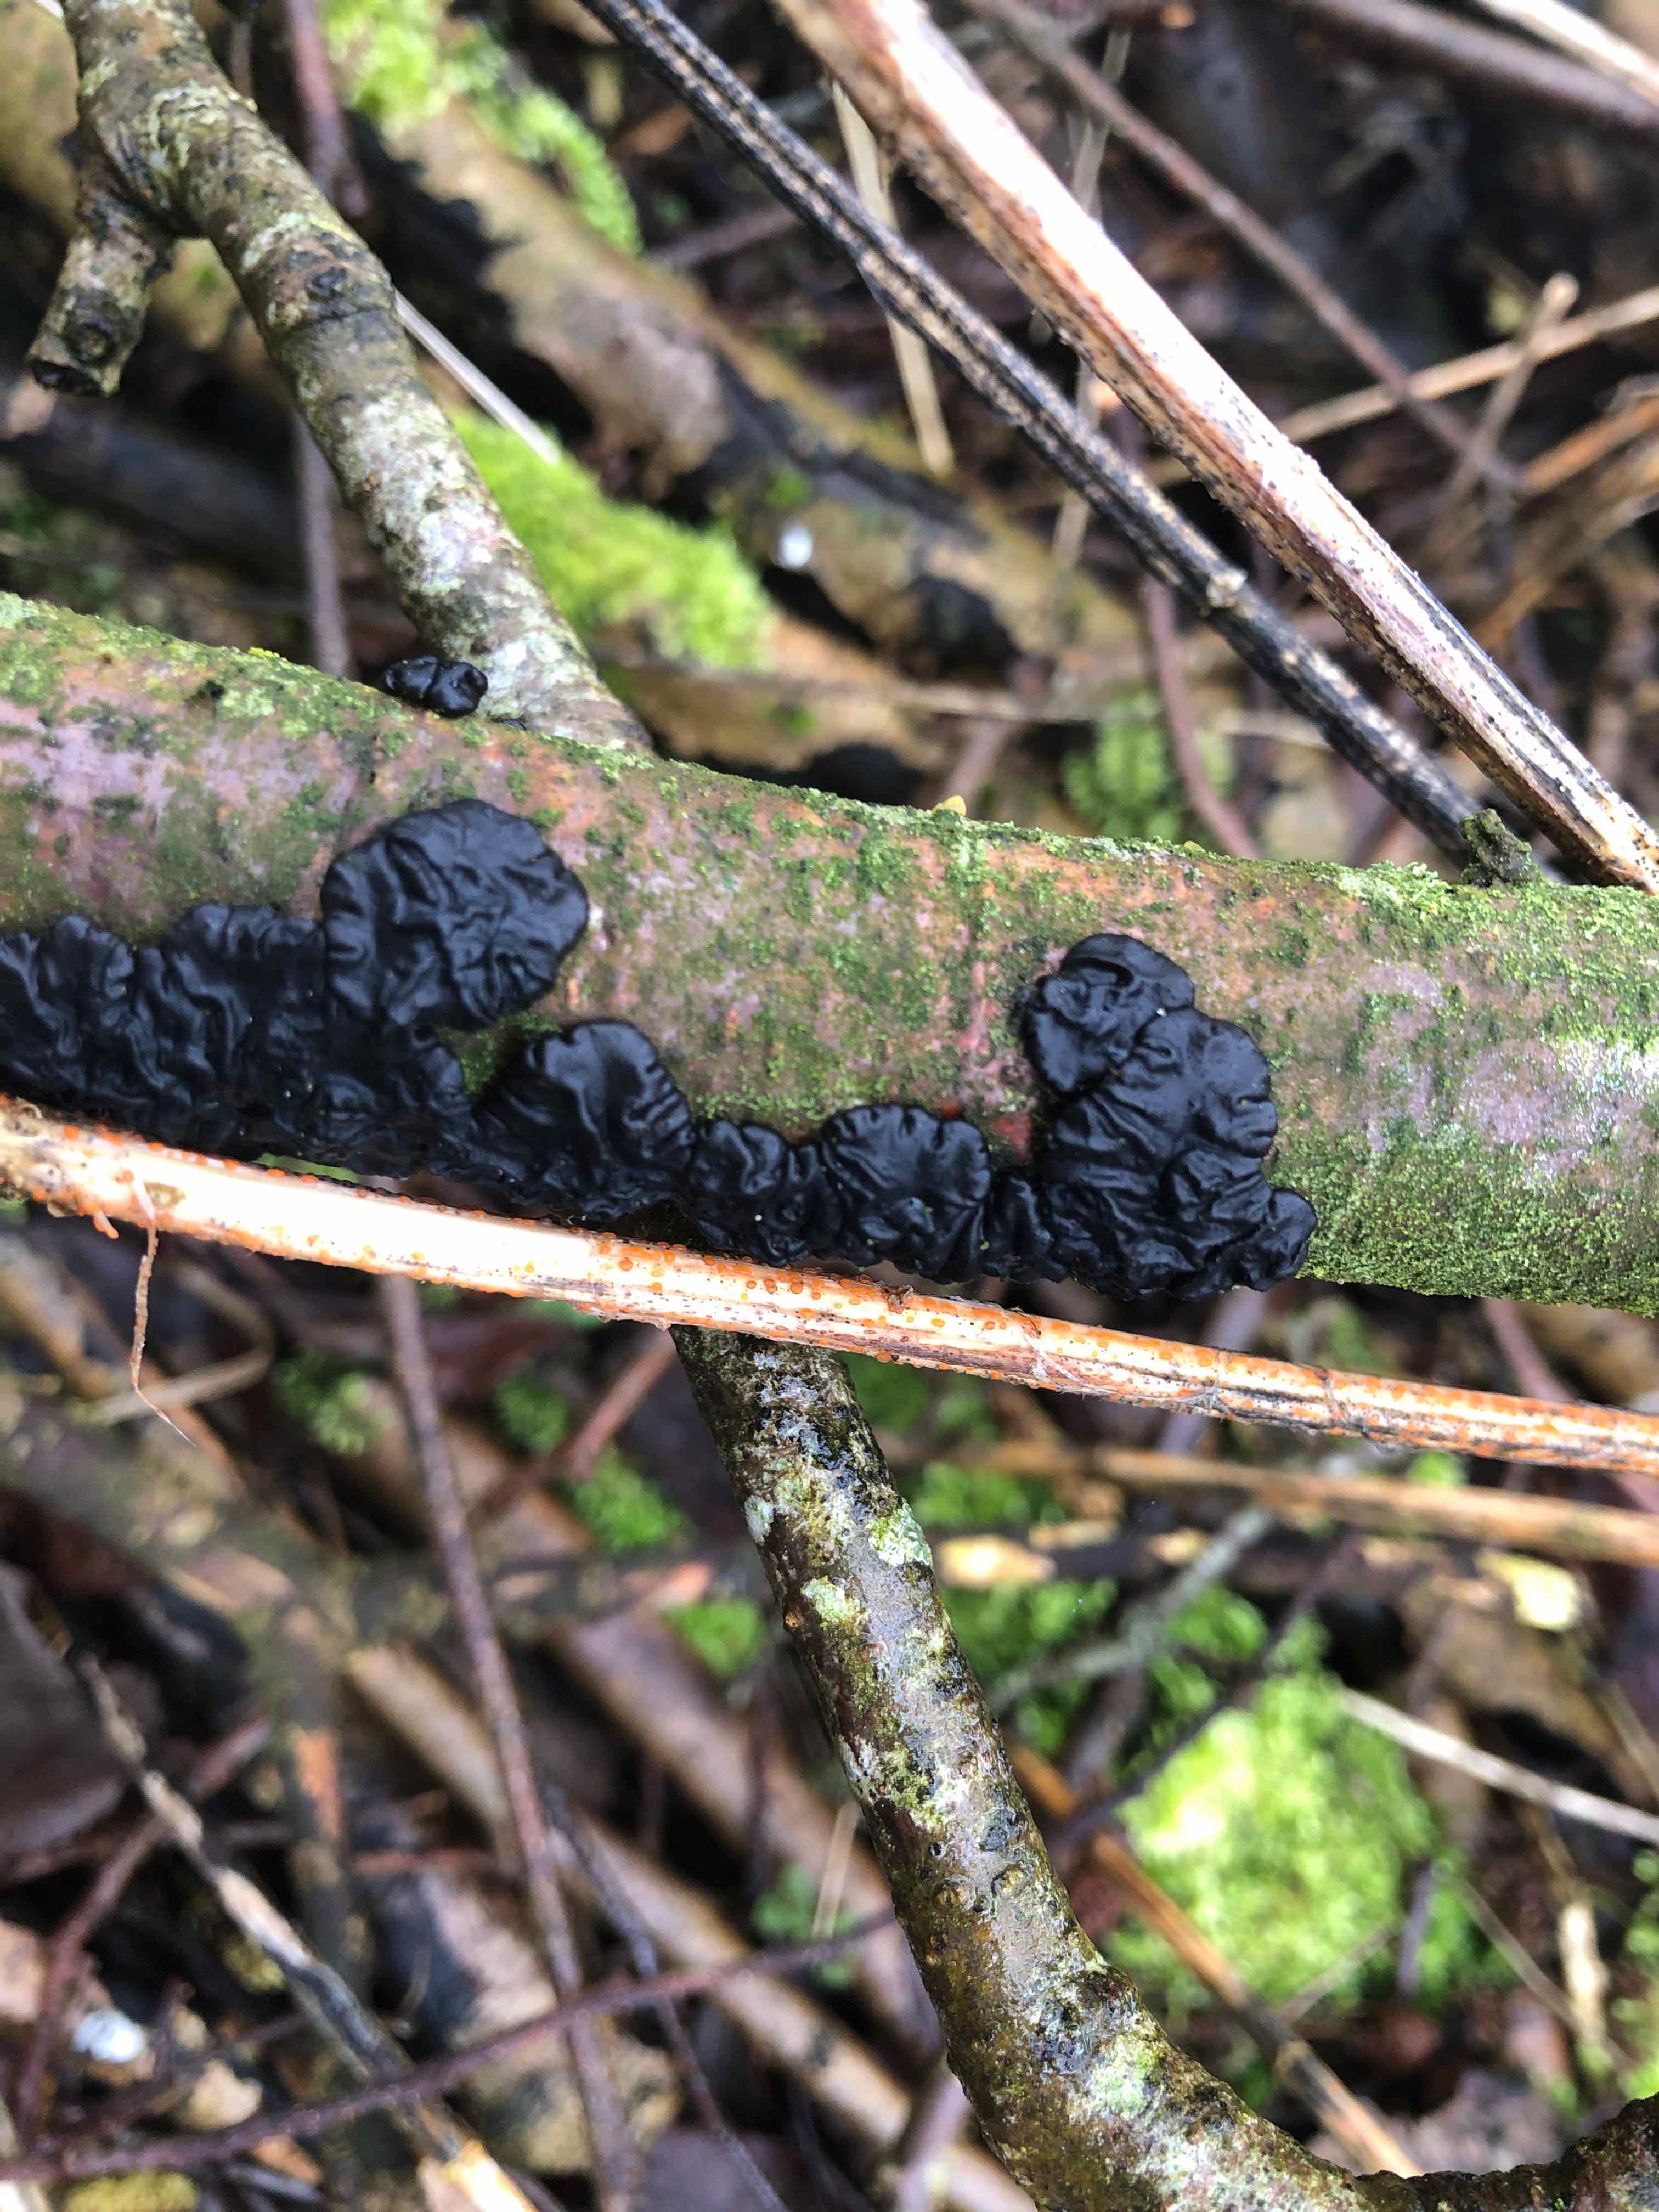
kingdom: Fungi
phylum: Basidiomycota
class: Agaricomycetes
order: Auriculariales
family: Auriculariaceae
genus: Exidia
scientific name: Exidia nigricans
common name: almindelig bævretop
